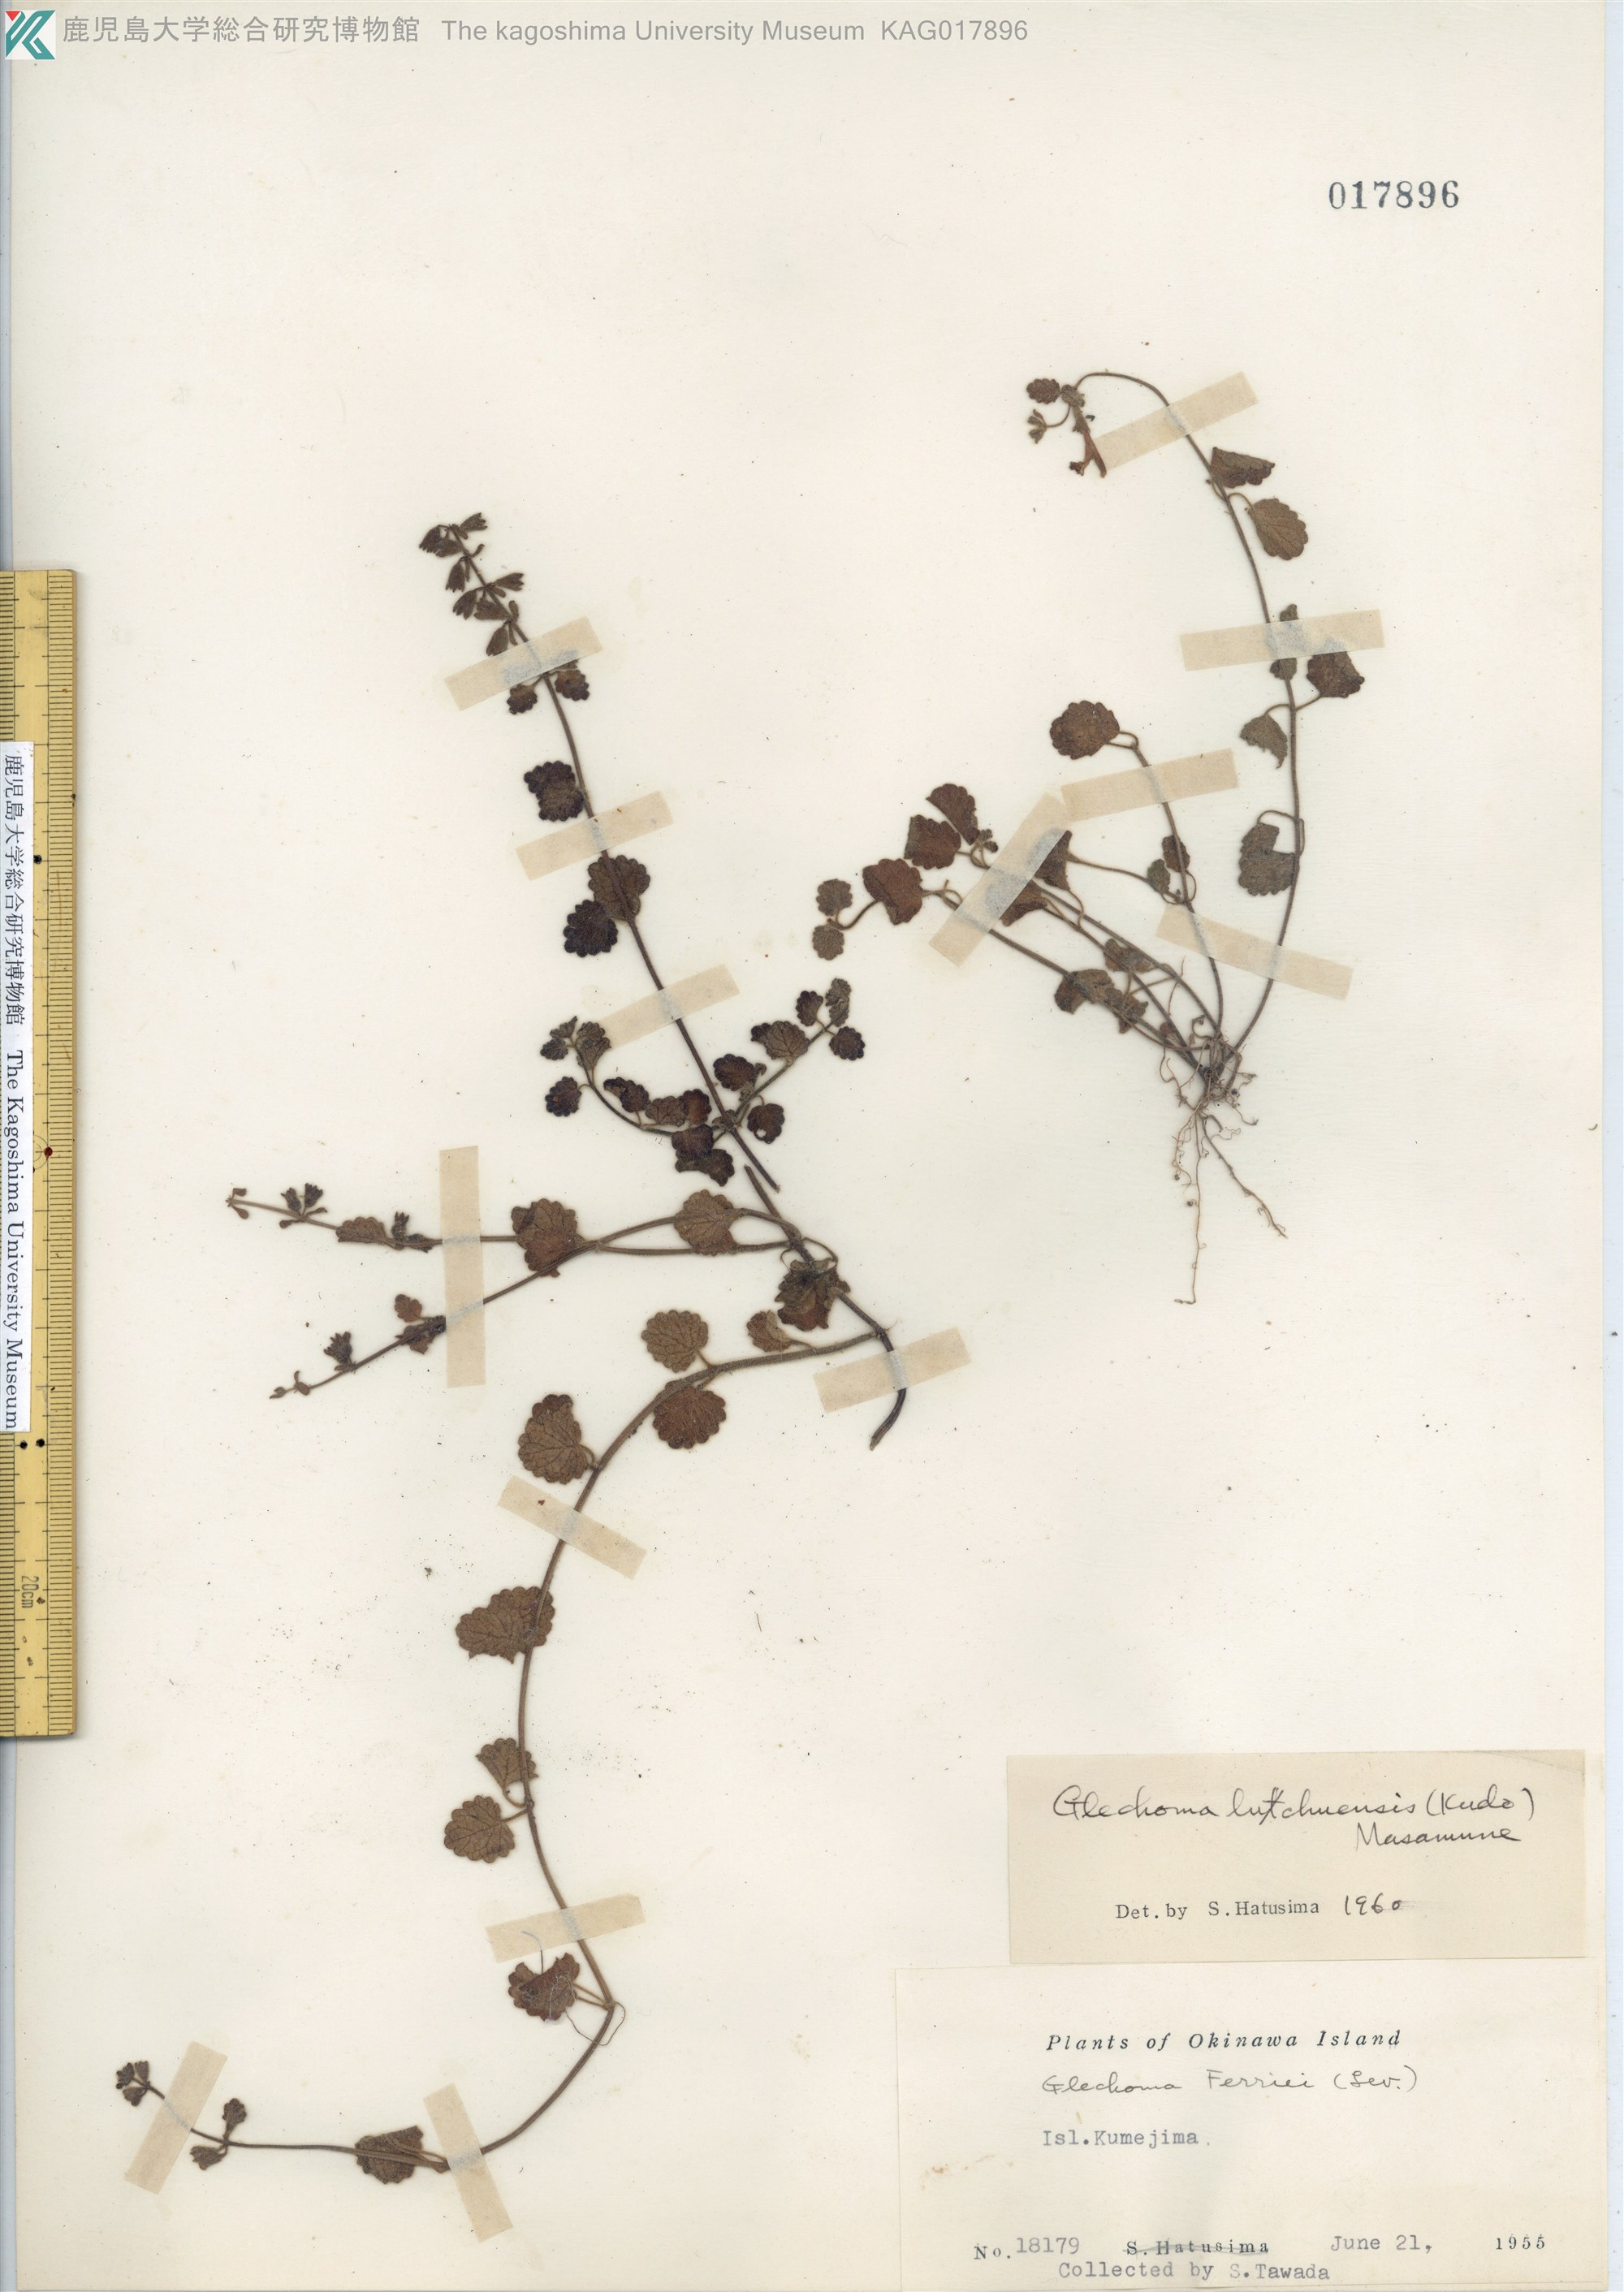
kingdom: Plantae
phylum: Tracheophyta
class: Magnoliopsida
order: Lamiales
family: Lamiaceae
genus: Suzukia
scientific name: Suzukia luchuensis
